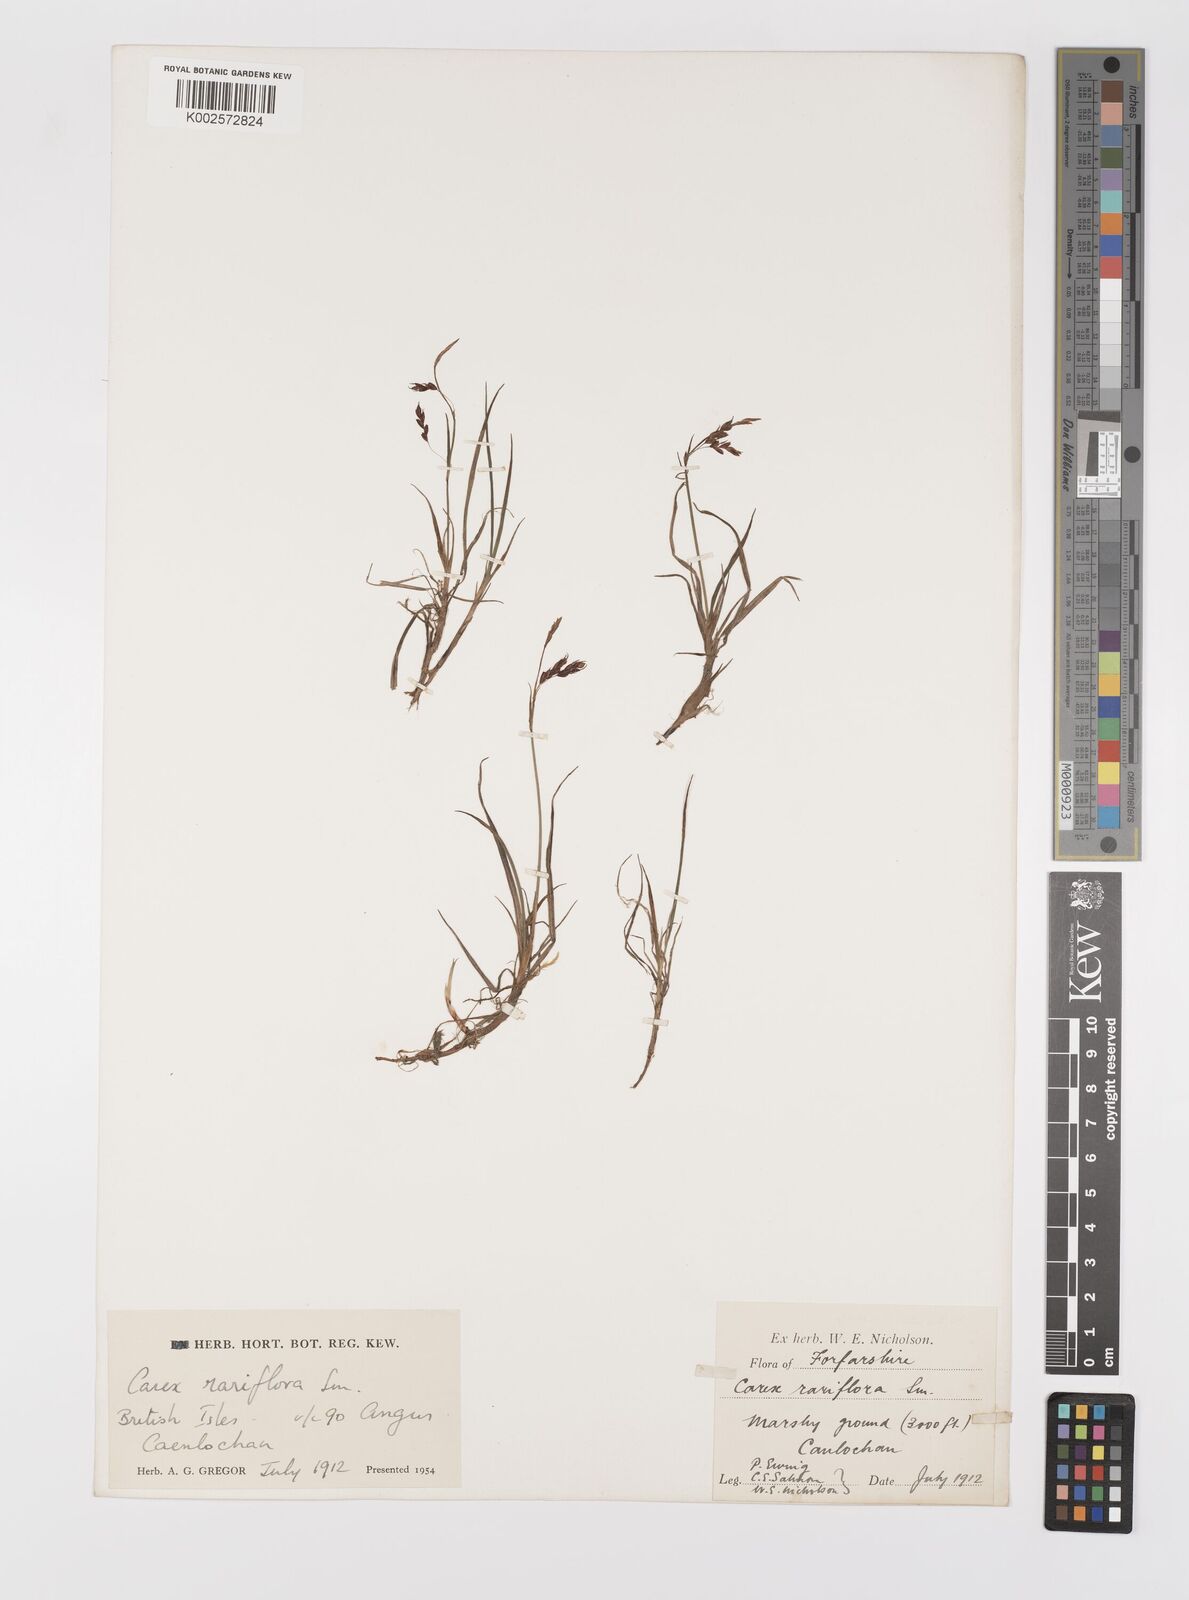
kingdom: Plantae
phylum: Tracheophyta
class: Liliopsida
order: Poales
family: Cyperaceae
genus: Carex
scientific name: Carex rariflora
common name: Loose-flowered alpine sedge
